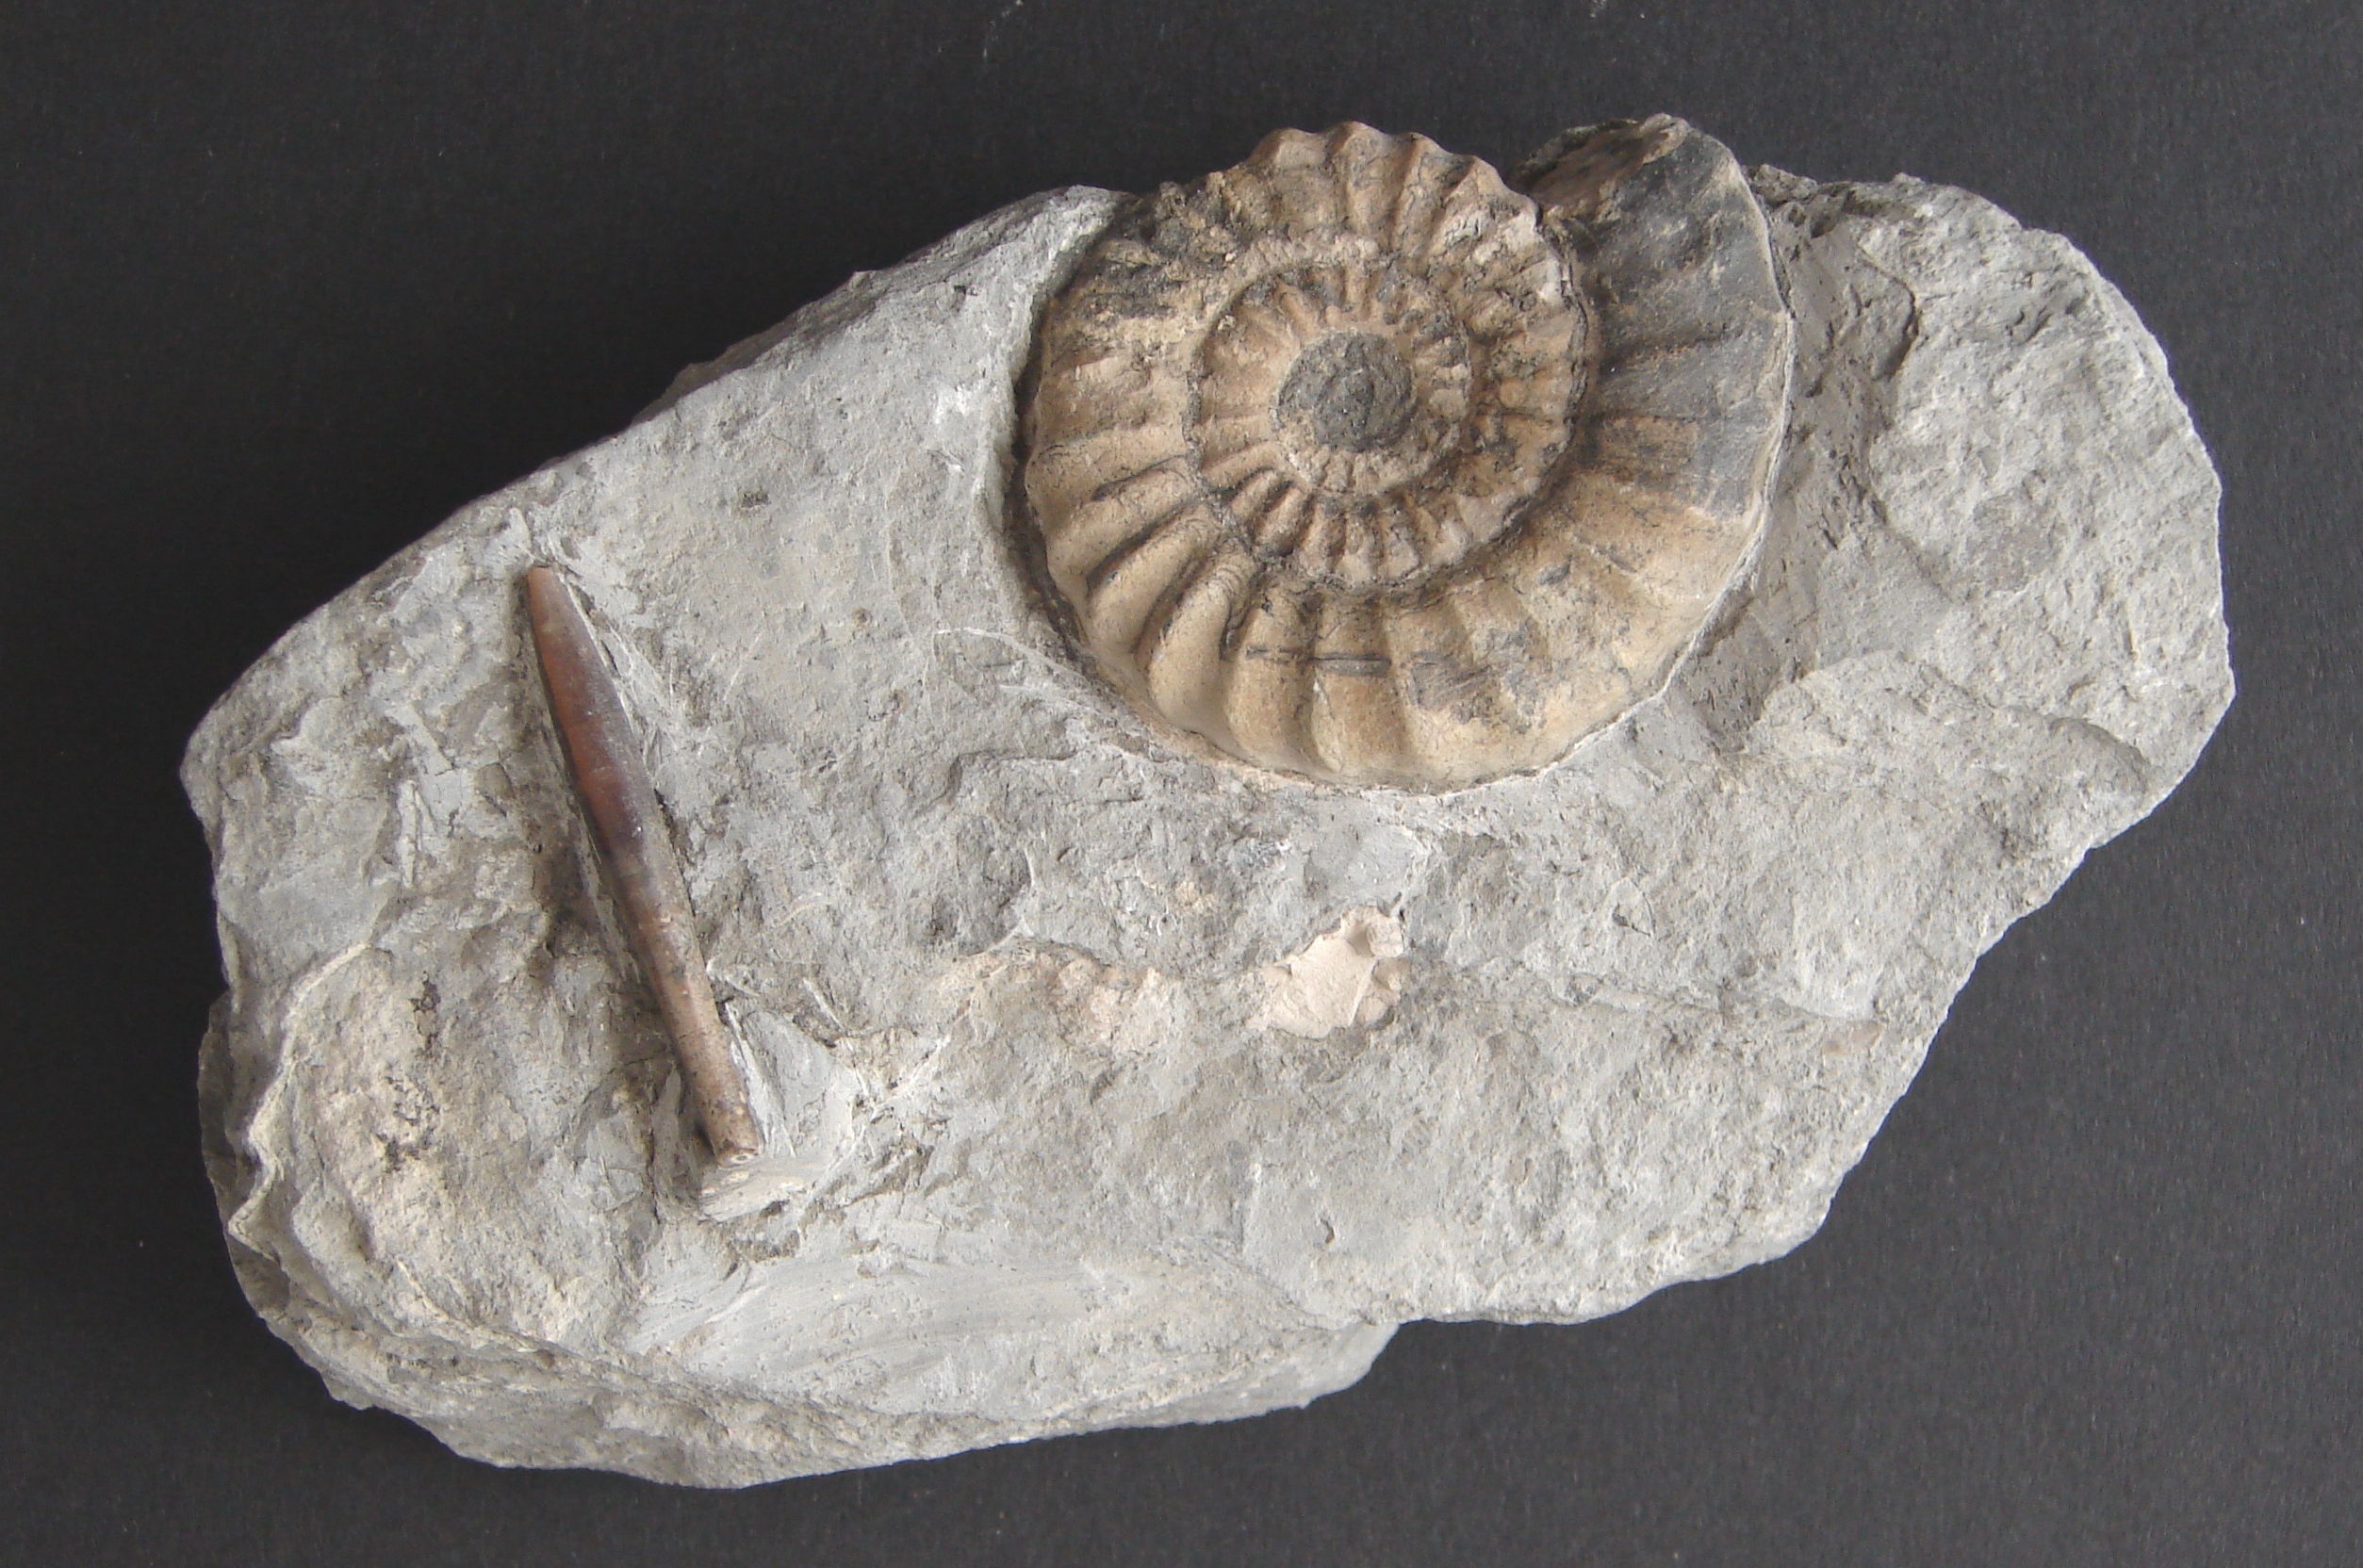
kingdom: Animalia
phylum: Mollusca
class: Cephalopoda
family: Liparoceratidae
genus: Androgynoceras
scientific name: Androgynoceras maculatum
